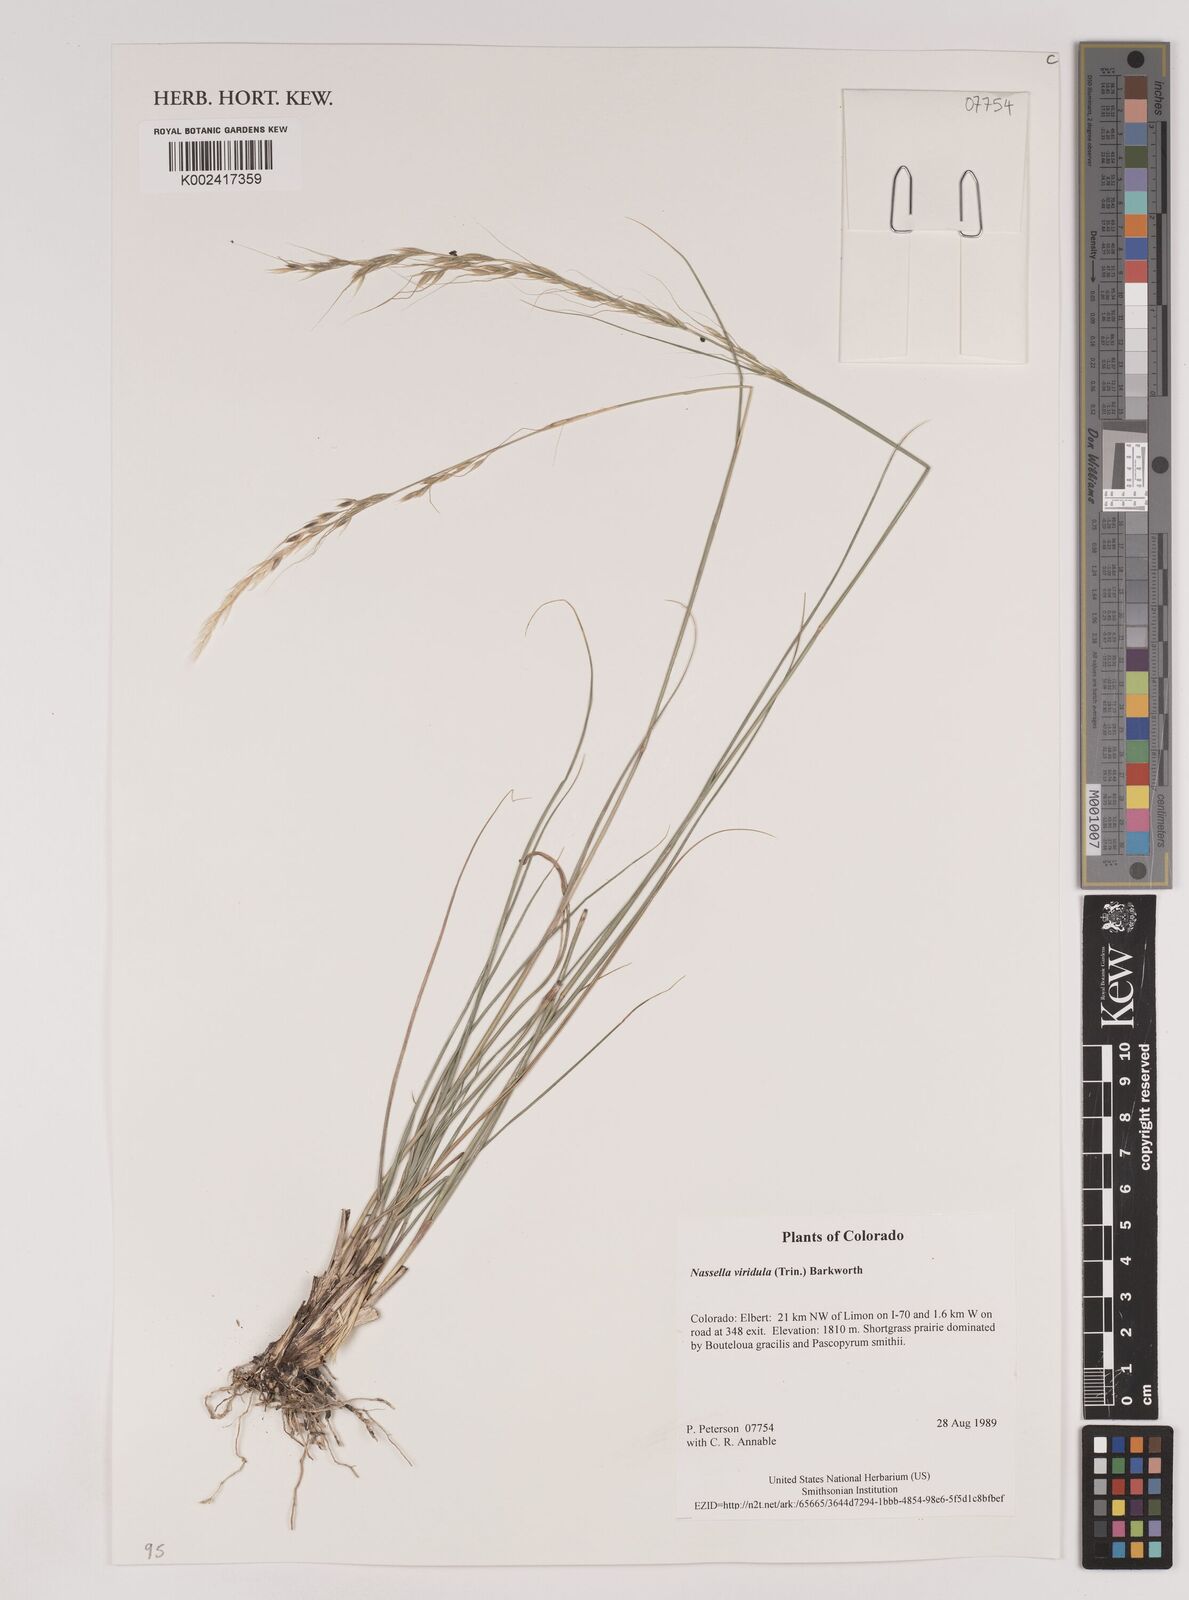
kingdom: Plantae
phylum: Tracheophyta
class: Liliopsida
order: Poales
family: Poaceae
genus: Nassella
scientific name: Nassella viridula
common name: Green needlegrass
